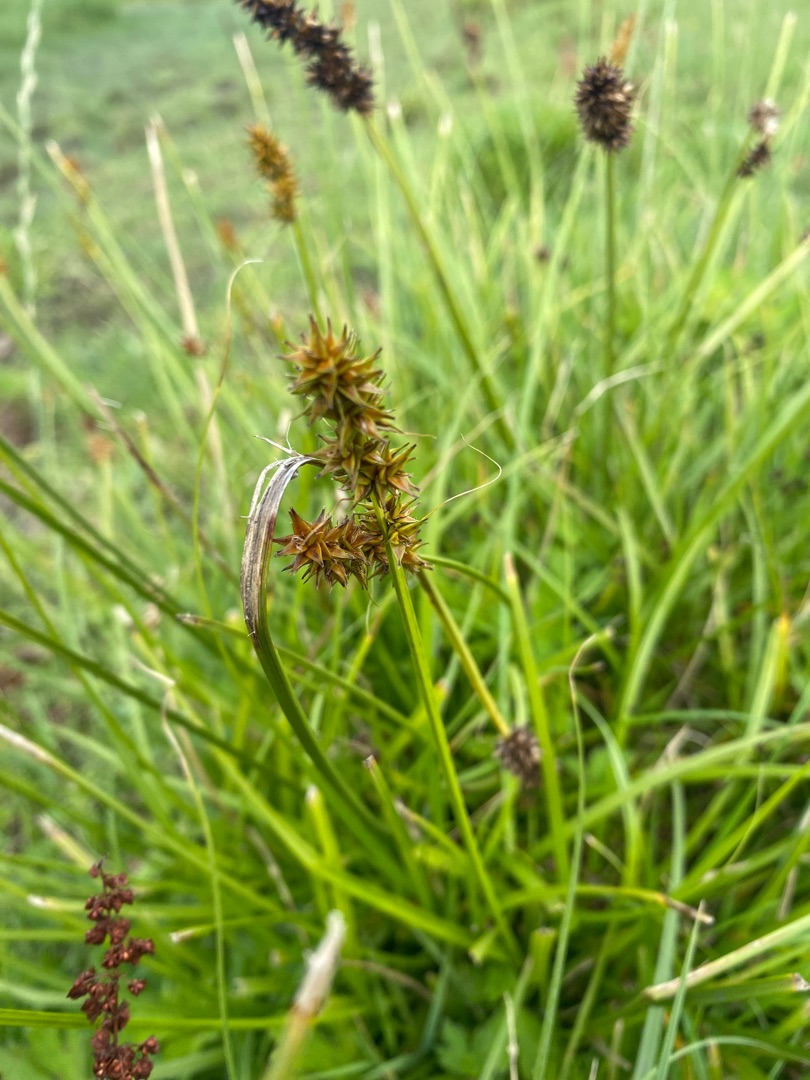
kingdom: Plantae
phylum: Tracheophyta
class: Liliopsida
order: Poales
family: Cyperaceae
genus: Carex
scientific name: Carex otrubae
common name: Sylt-star
